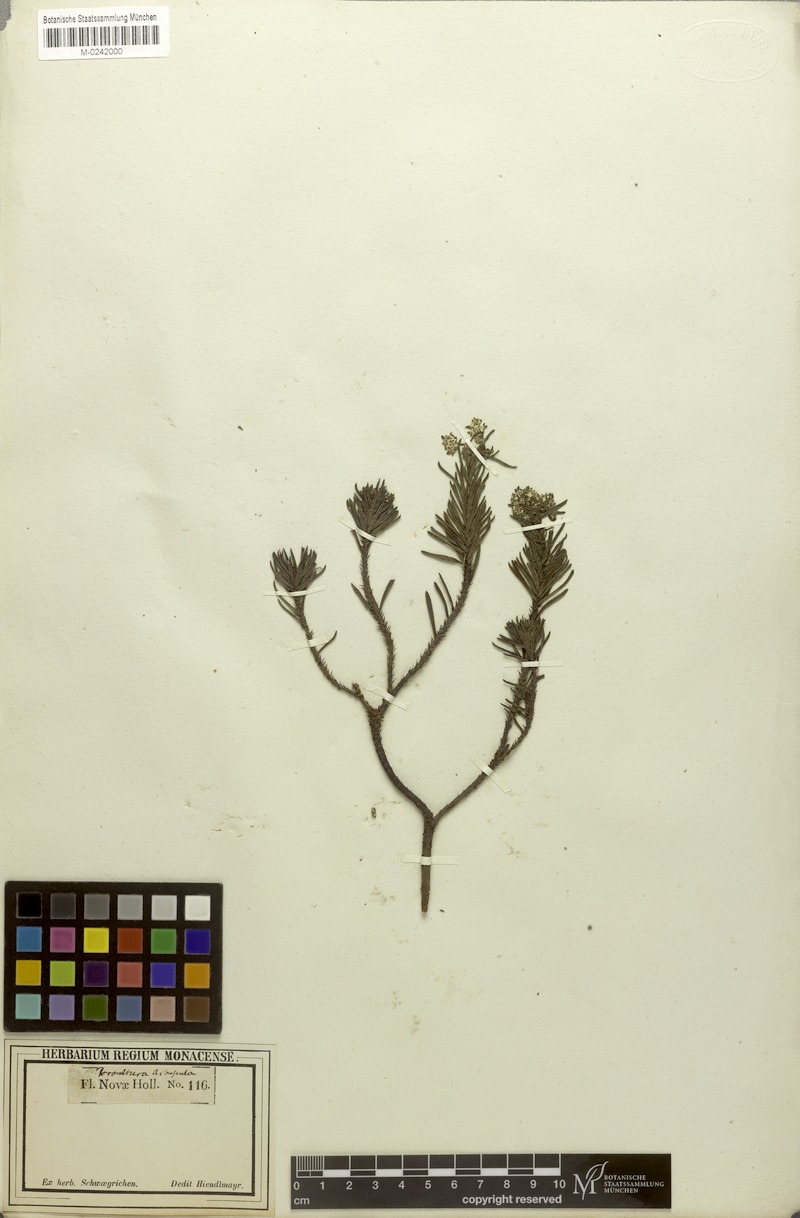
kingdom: Plantae
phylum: Tracheophyta
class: Magnoliopsida
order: Malpighiales
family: Phyllanthaceae
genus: Poranthera
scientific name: Poranthera corymbosa
